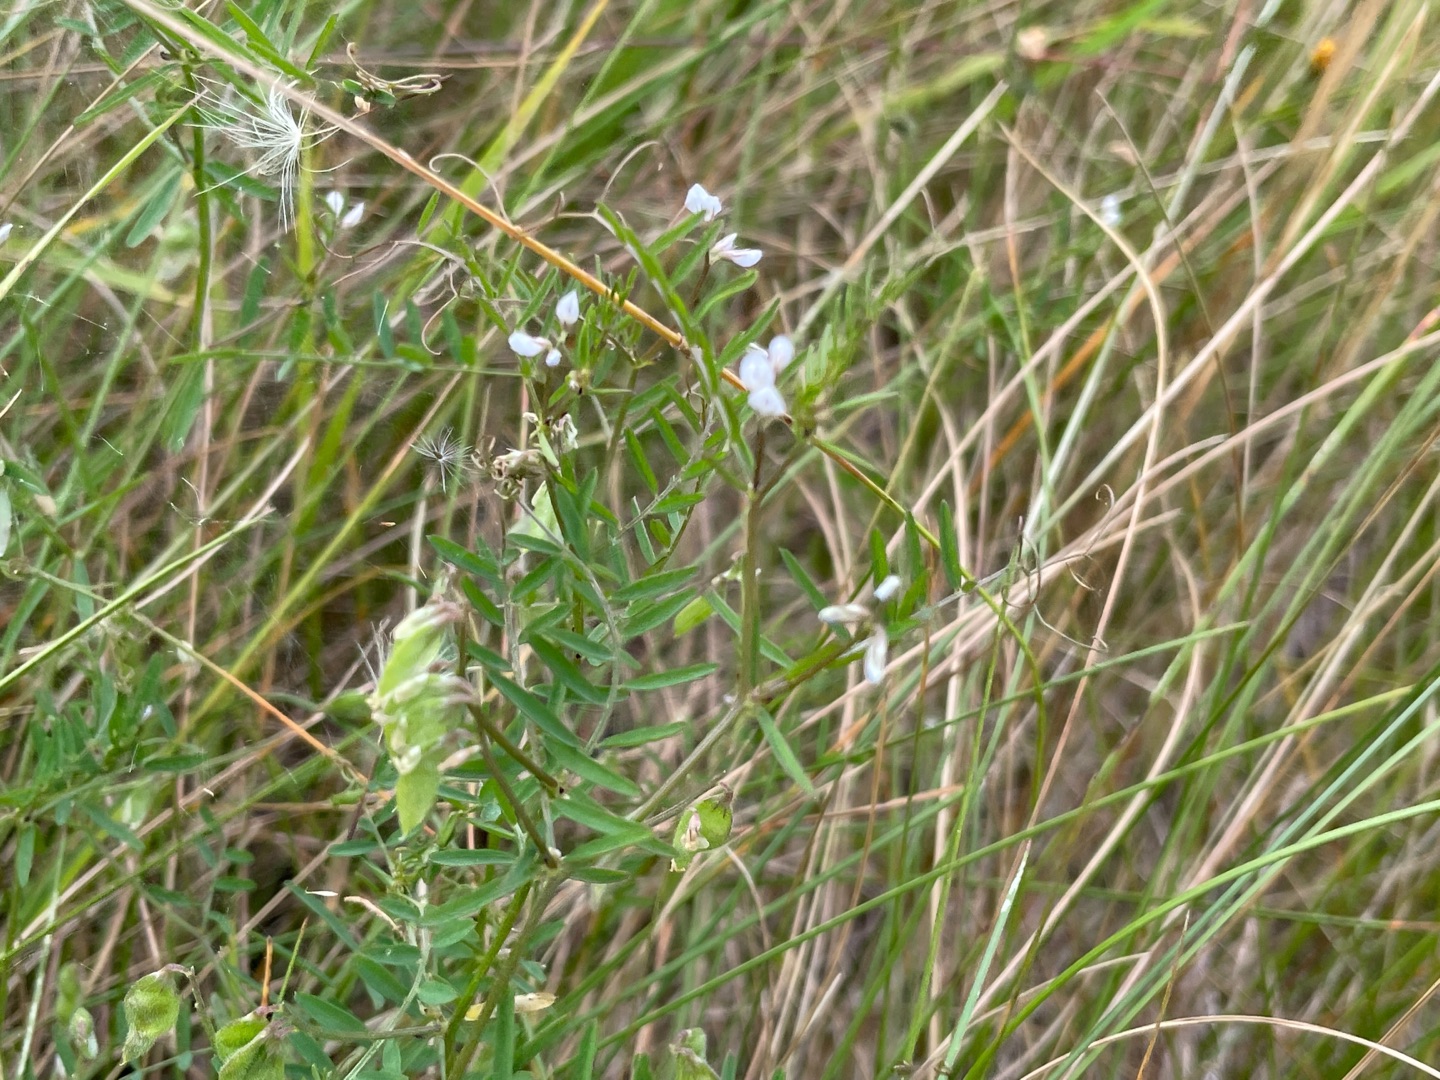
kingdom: Plantae
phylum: Tracheophyta
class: Magnoliopsida
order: Fabales
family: Fabaceae
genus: Vicia
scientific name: Vicia hirsuta
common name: Tofrøet vikke
